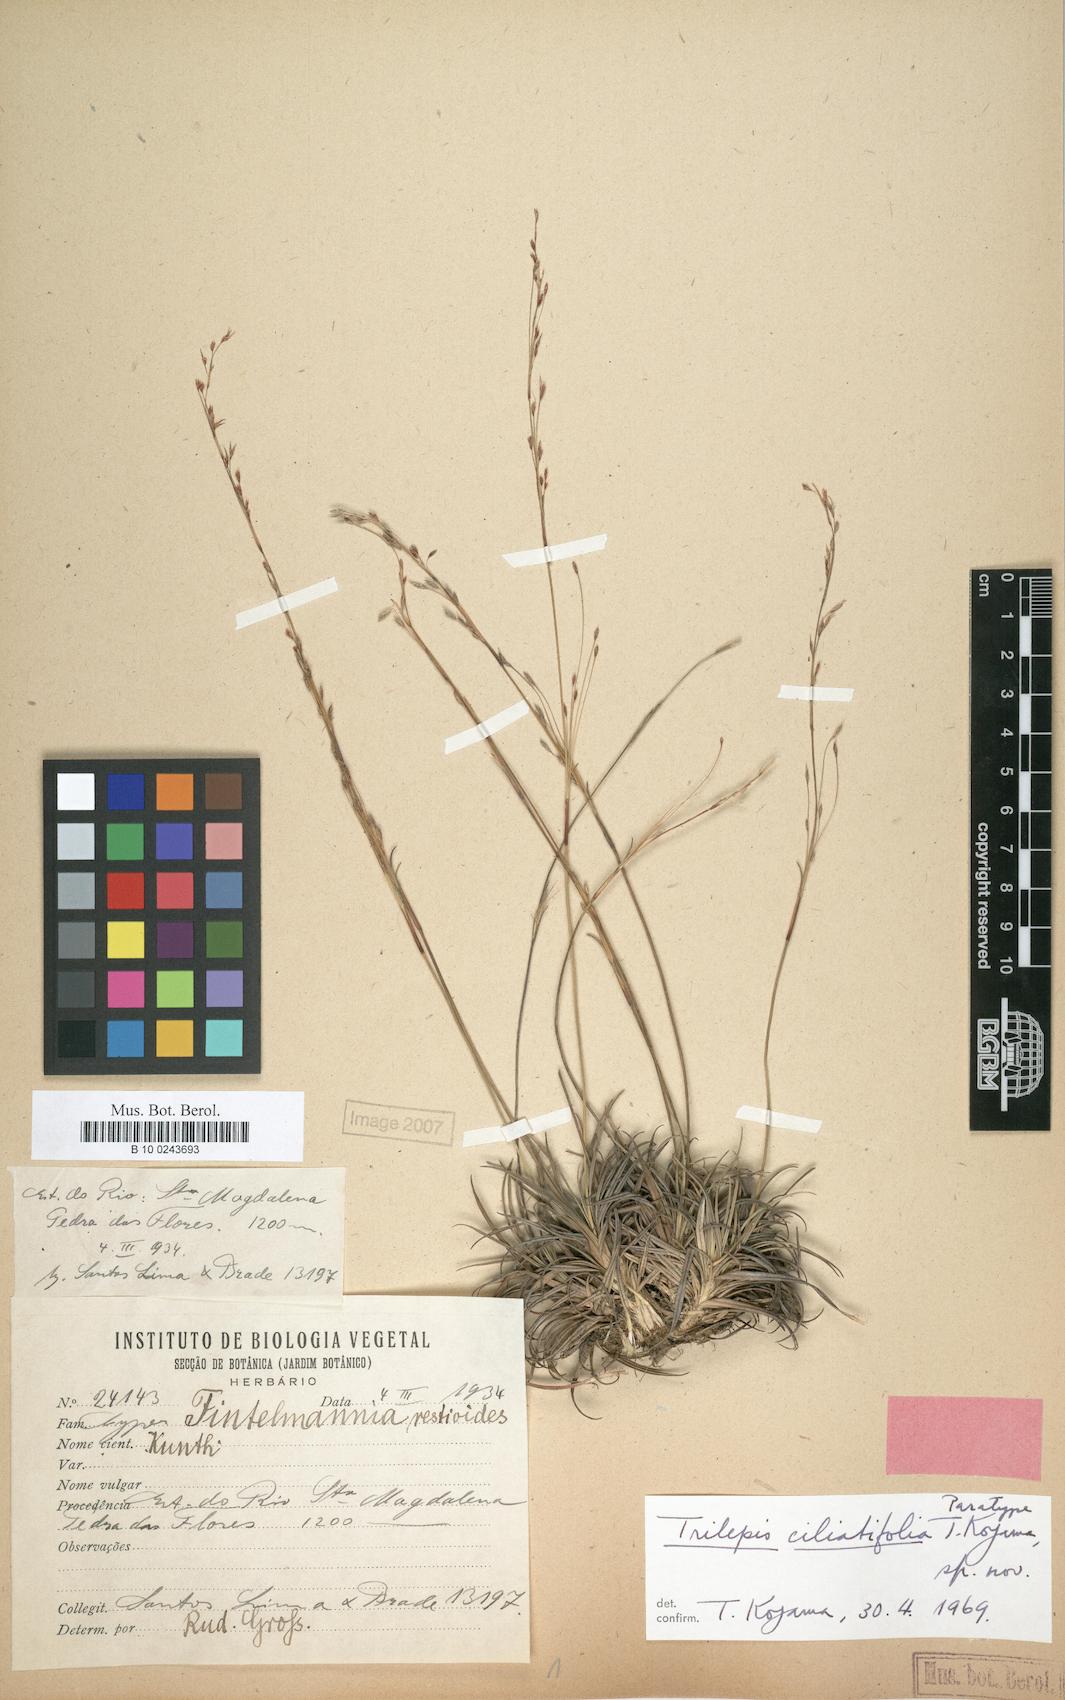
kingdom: Plantae
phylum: Tracheophyta
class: Liliopsida
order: Poales
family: Cyperaceae
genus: Trilepis
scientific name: Trilepis ciliatifolia
